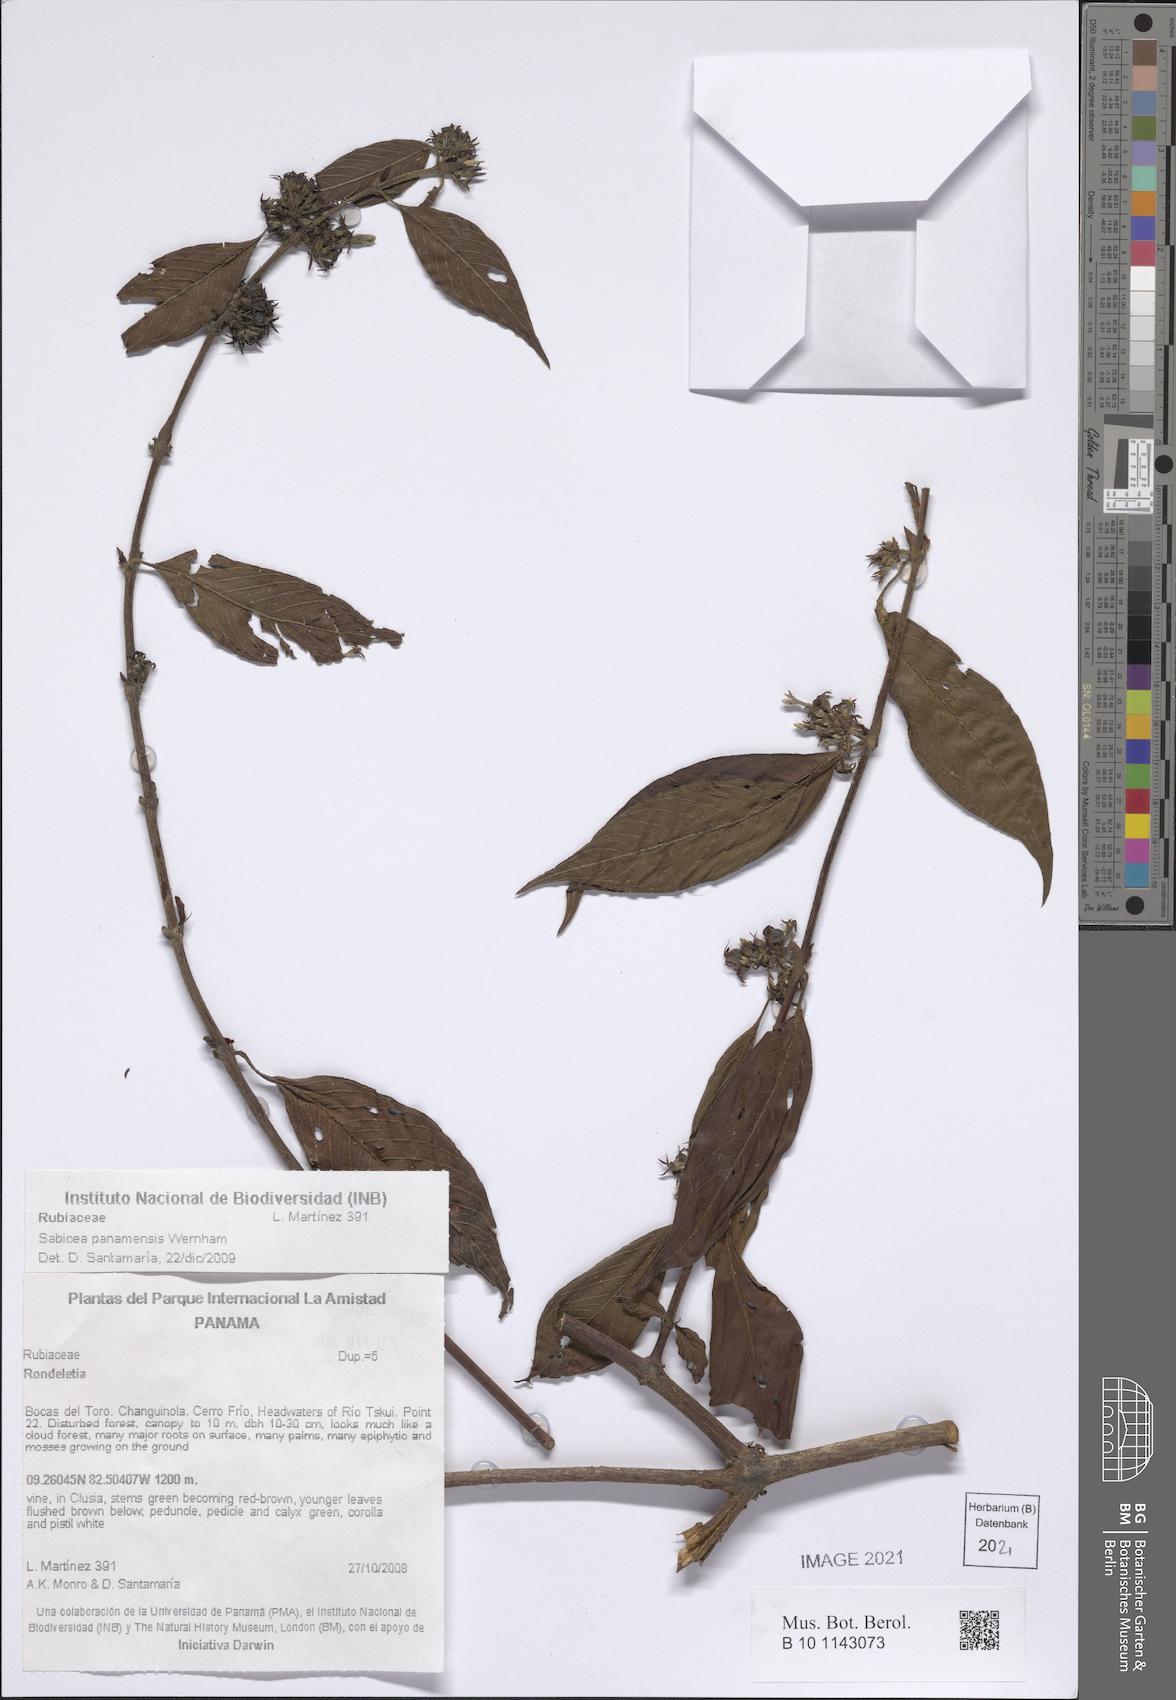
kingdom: Plantae
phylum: Tracheophyta
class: Magnoliopsida
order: Gentianales
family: Rubiaceae
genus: Sabicea
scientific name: Sabicea panamensis
